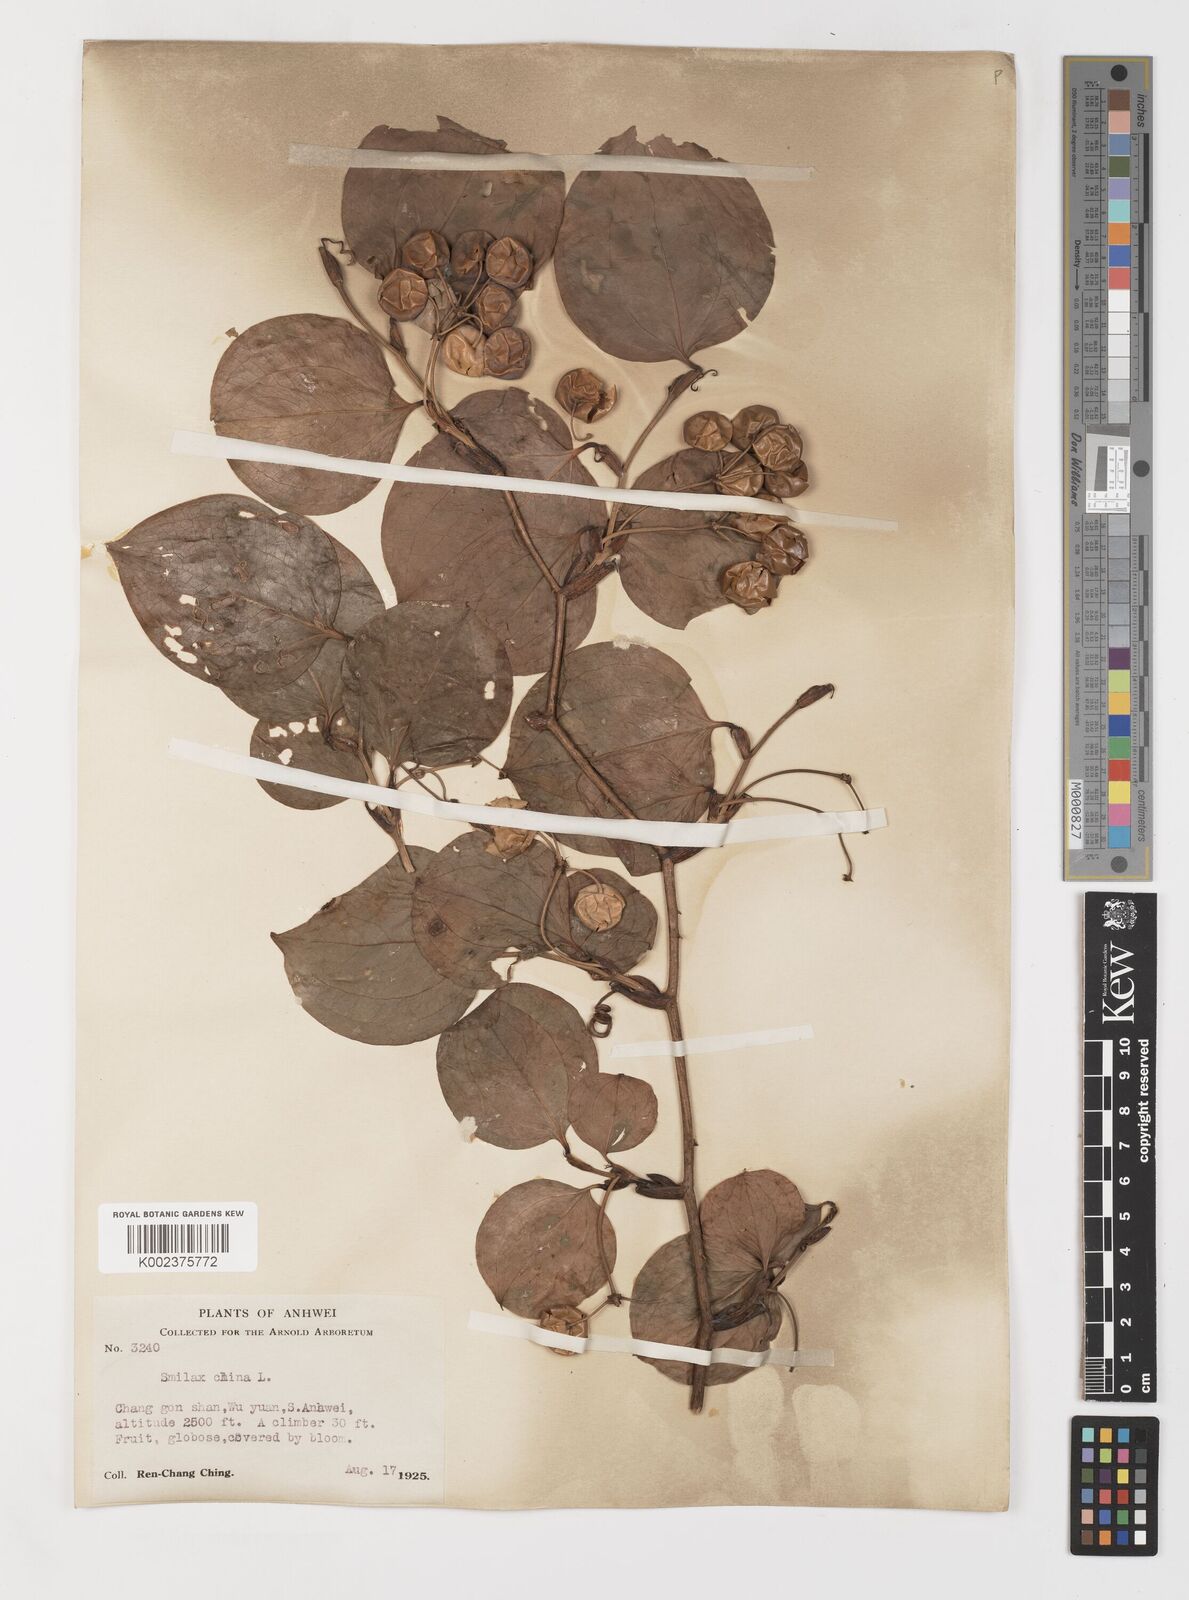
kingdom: Plantae
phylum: Tracheophyta
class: Liliopsida
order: Liliales
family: Smilacaceae
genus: Smilax
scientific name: Smilax china
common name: Chinaroot
